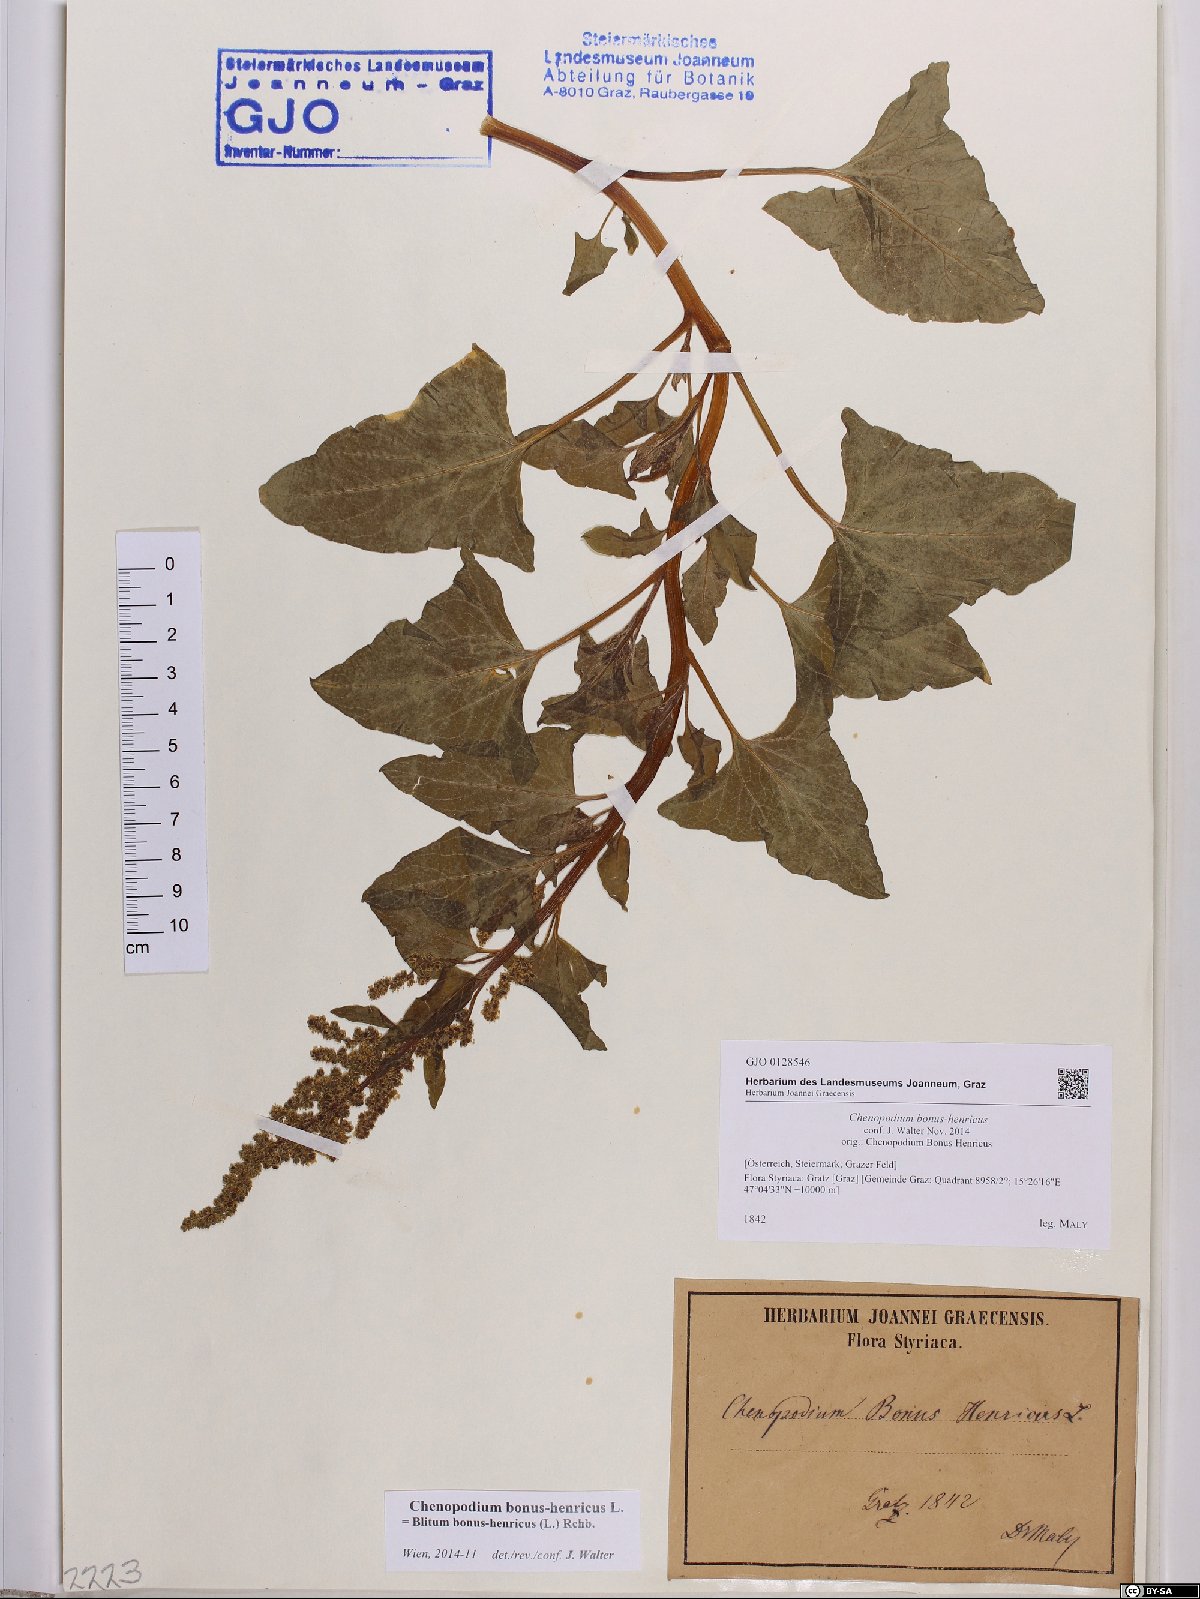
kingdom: Plantae
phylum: Tracheophyta
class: Magnoliopsida
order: Caryophyllales
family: Amaranthaceae
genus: Blitum
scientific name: Blitum bonus-henricus
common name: Good king henry
